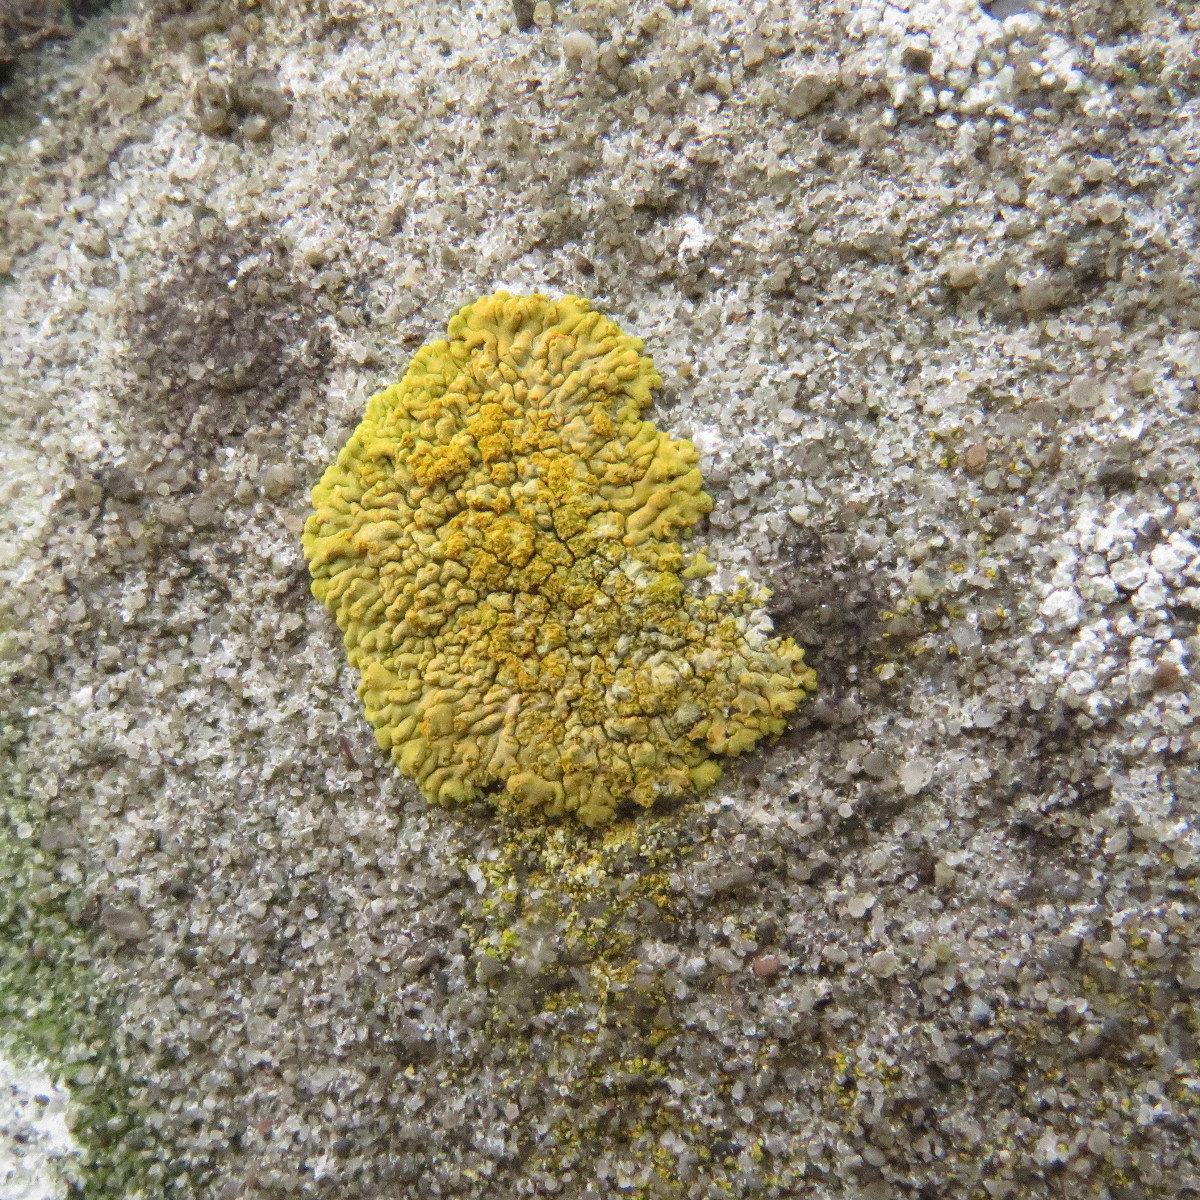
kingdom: Fungi
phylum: Ascomycota
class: Lecanoromycetes
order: Teloschistales
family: Teloschistaceae
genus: Calogaya
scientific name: Calogaya decipiens
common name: knudret orangelav
